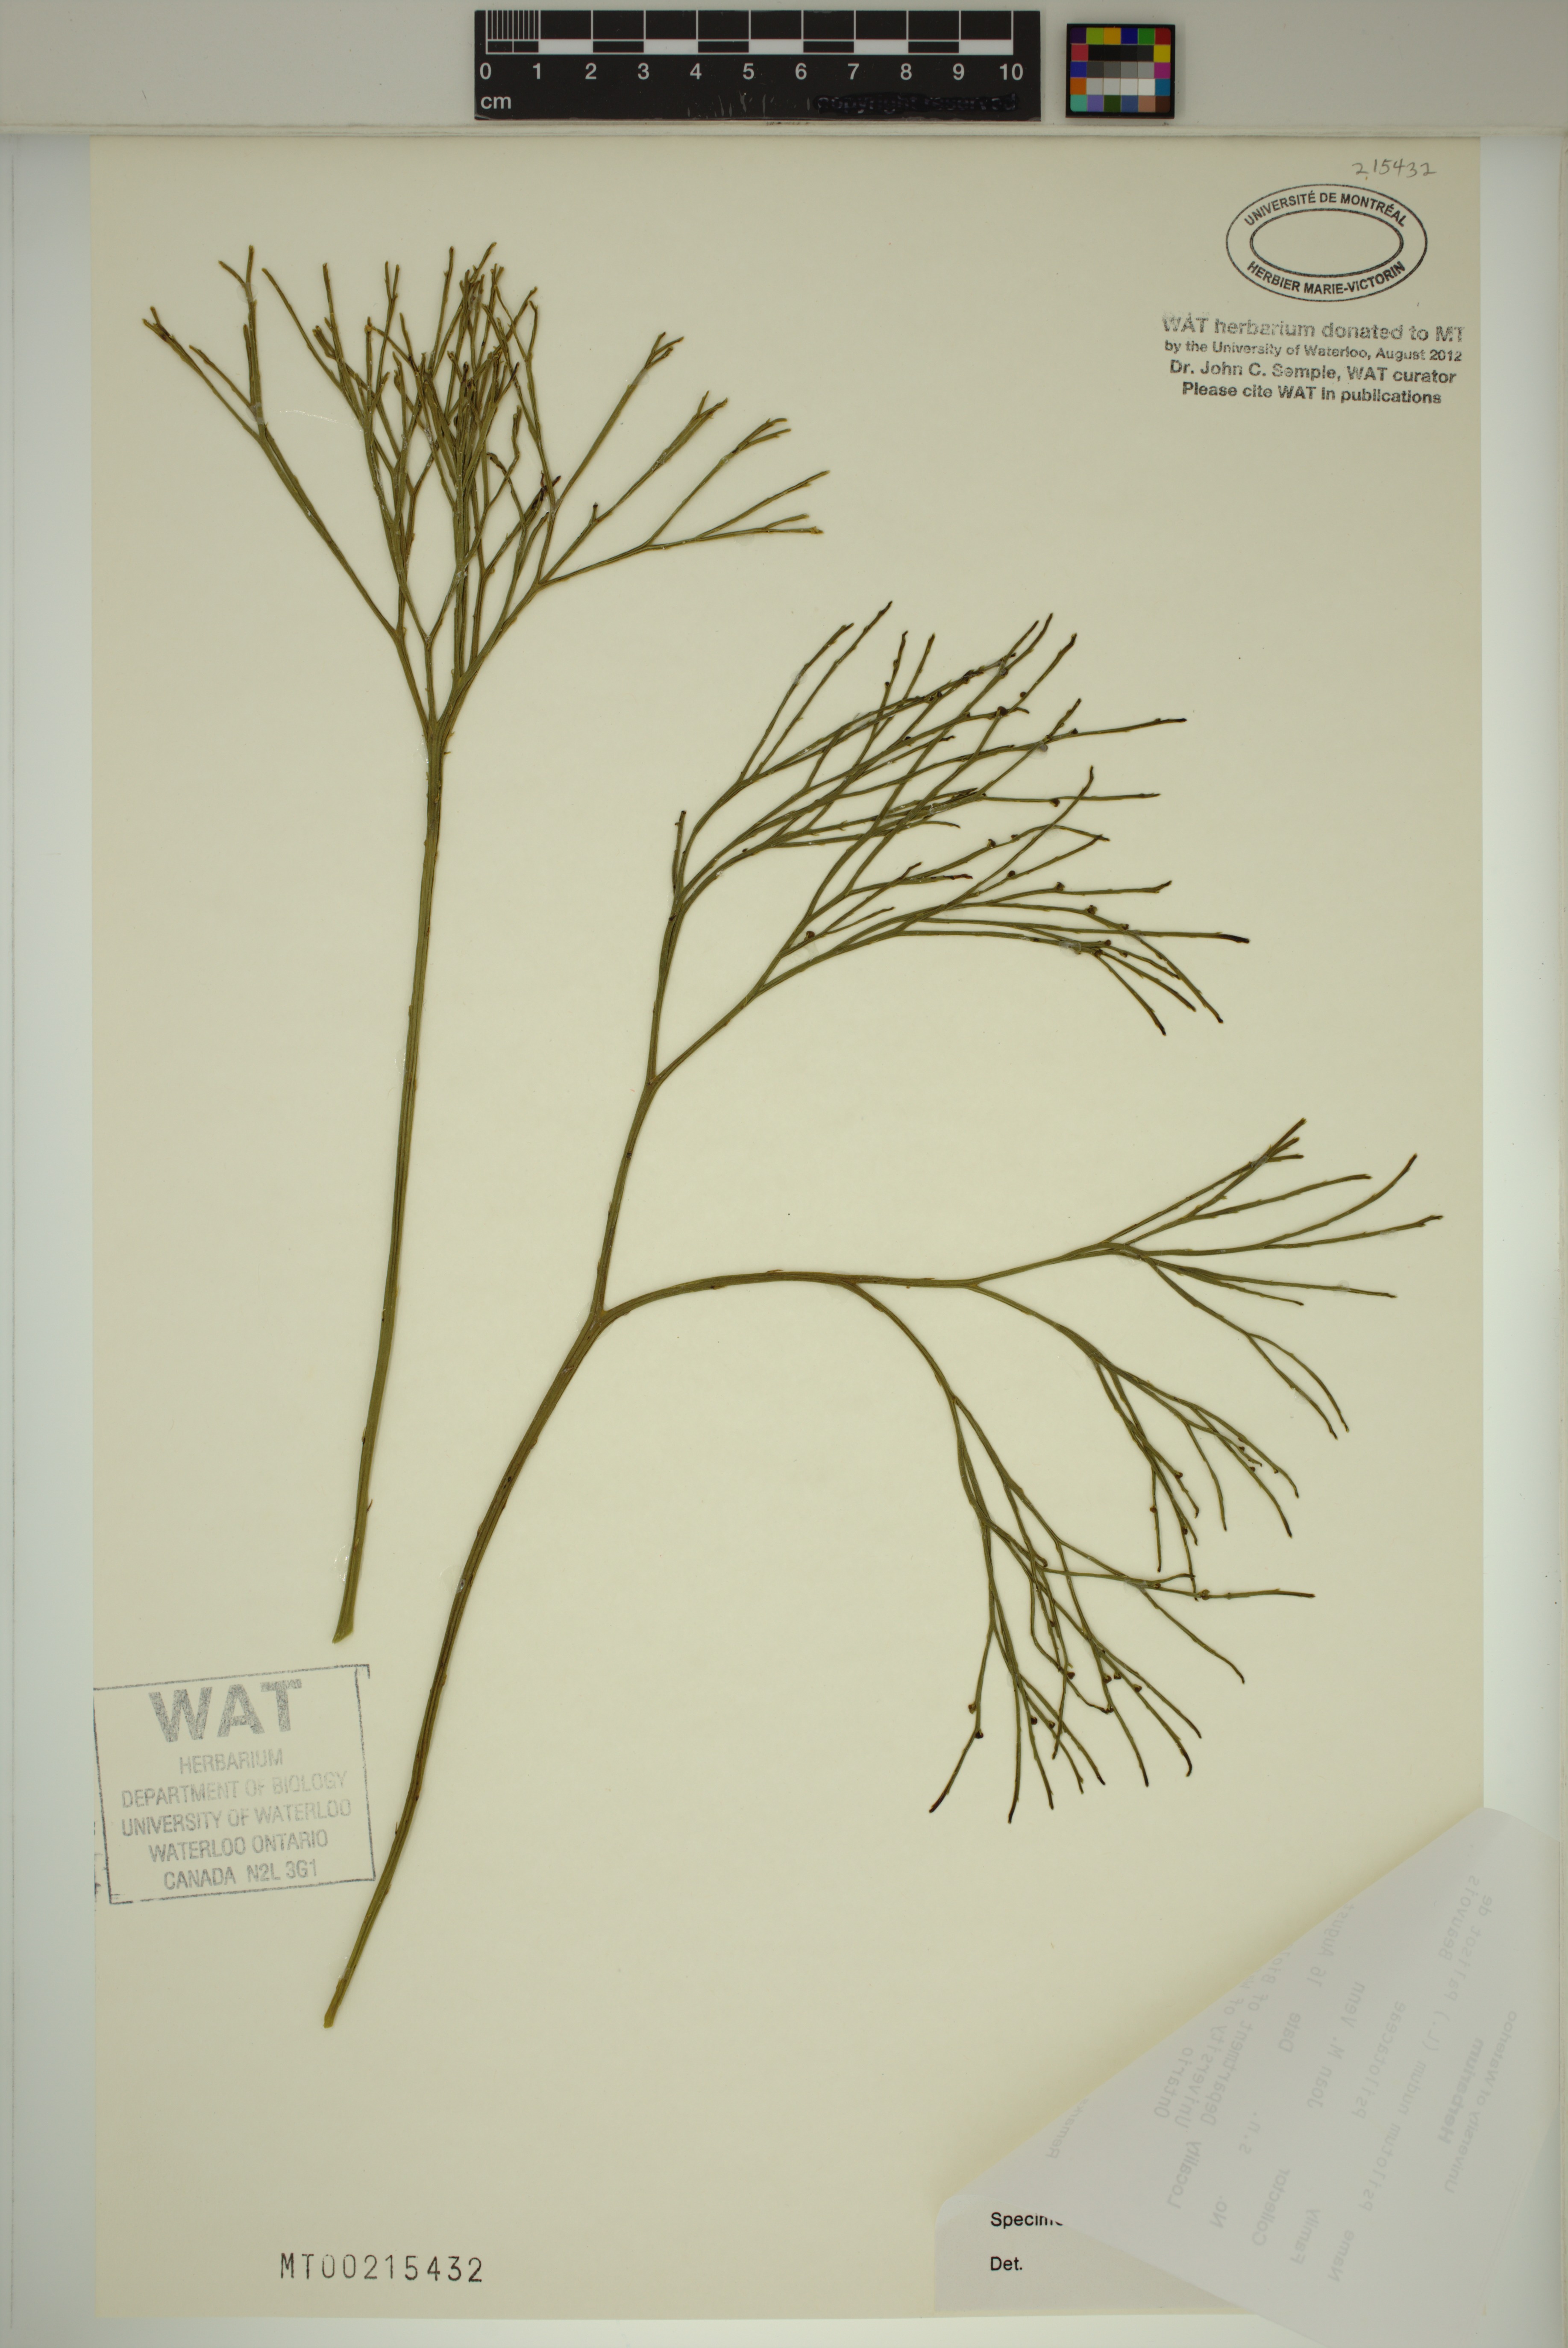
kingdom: Plantae
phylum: Tracheophyta
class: Polypodiopsida
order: Psilotales
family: Psilotaceae
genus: Psilotum
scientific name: Psilotum nudum
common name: Skeleton fork fern
